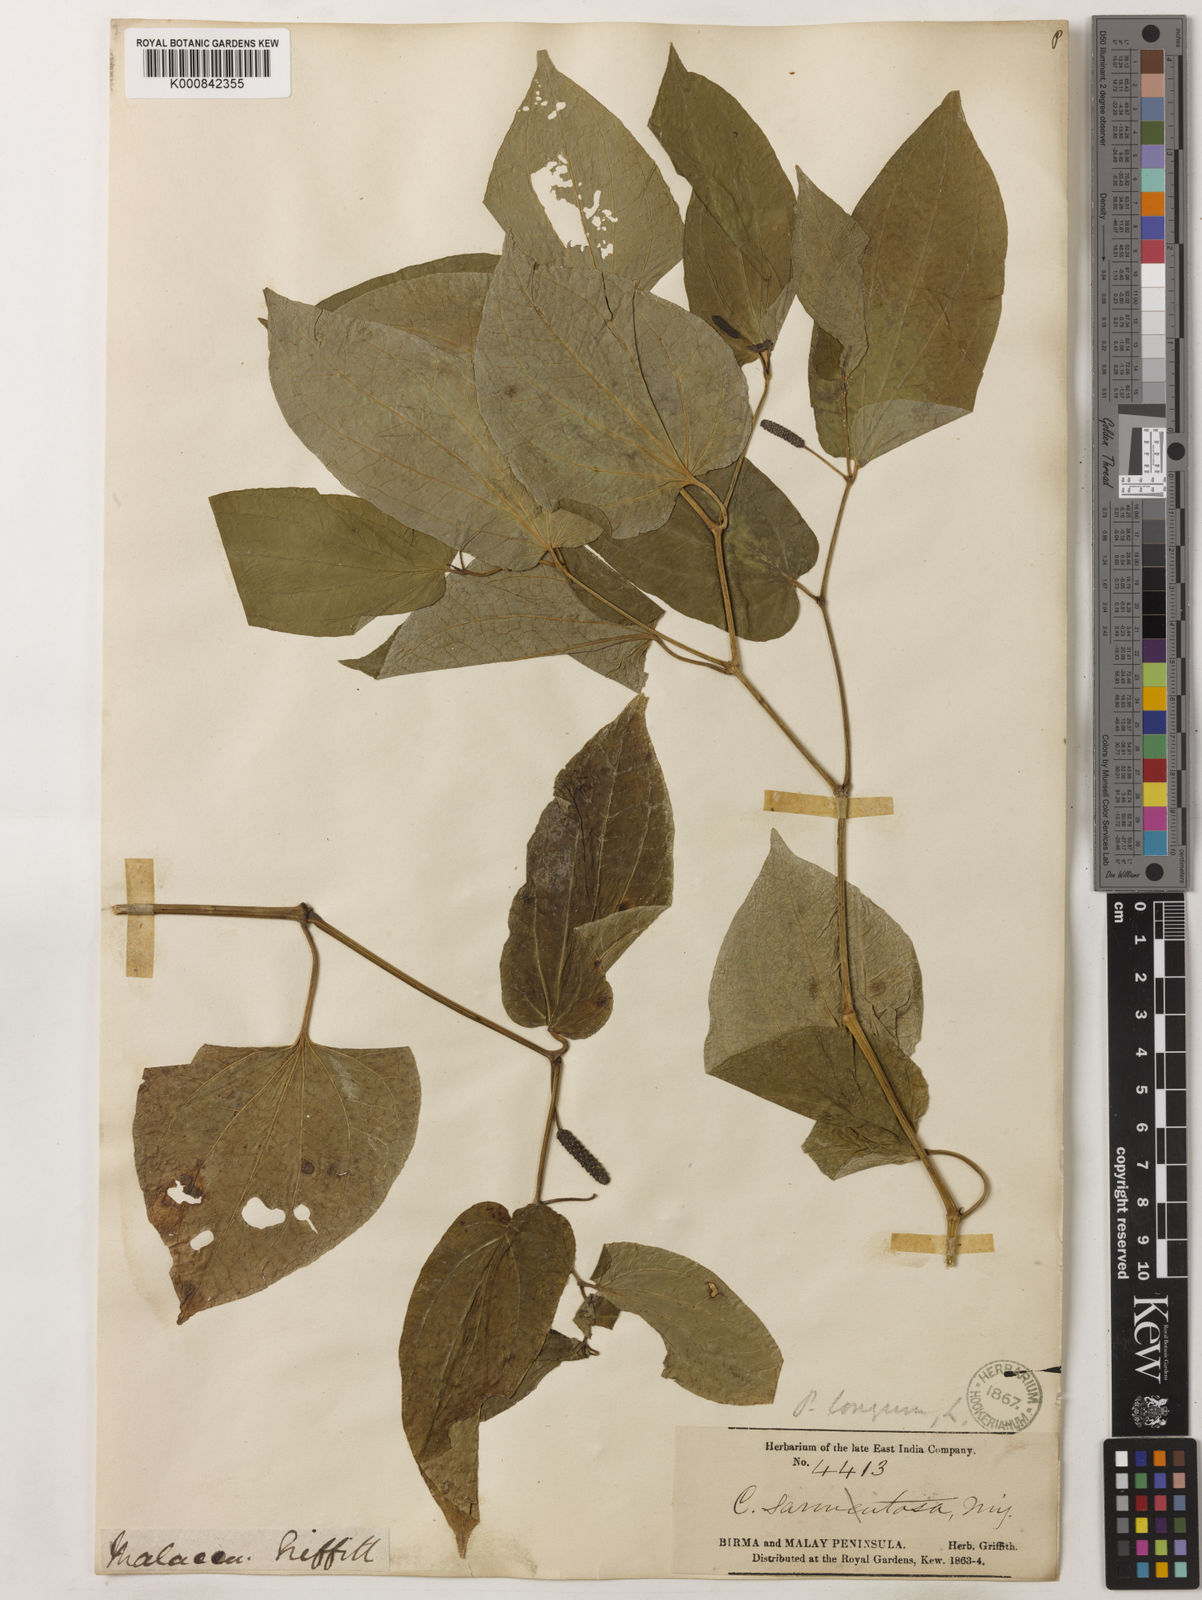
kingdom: Plantae
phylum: Tracheophyta
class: Magnoliopsida
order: Piperales
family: Piperaceae
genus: Piper
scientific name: Piper sarmentosum
